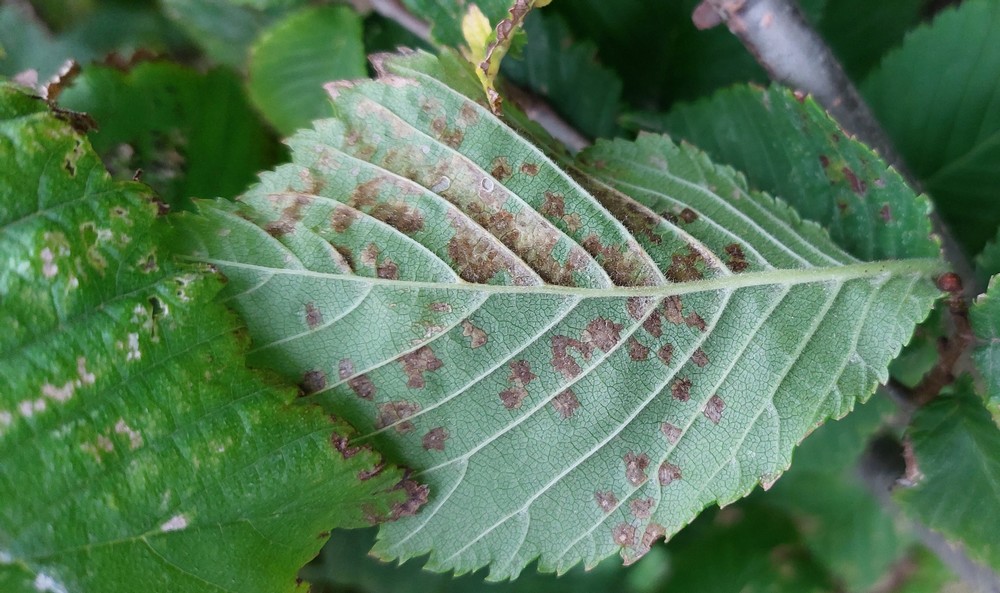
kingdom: Fungi
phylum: Ascomycota
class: Dothideomycetes
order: Mycosphaerellales
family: Mycosphaerellaceae
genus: Mycosphaerella
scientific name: Mycosphaerella ulmi
